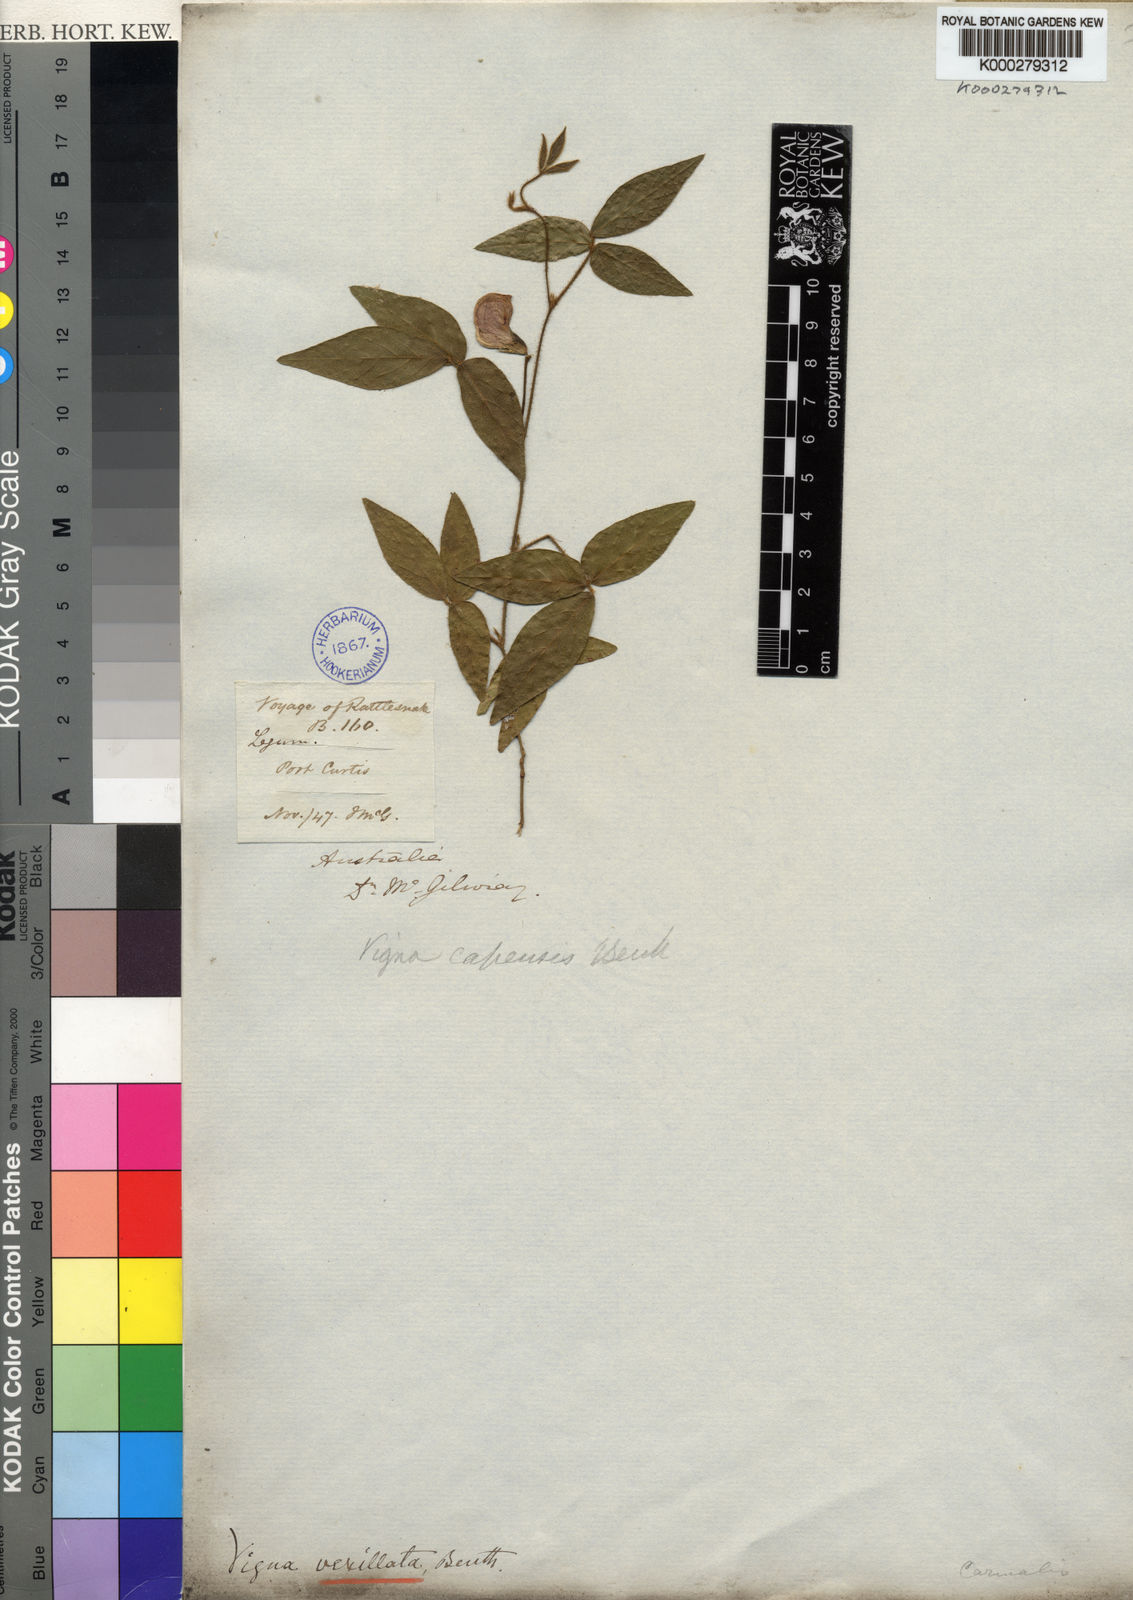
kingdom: Plantae
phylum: Tracheophyta
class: Magnoliopsida
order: Fabales
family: Fabaceae
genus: Vigna
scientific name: Vigna vexillata
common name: Zombi pea
